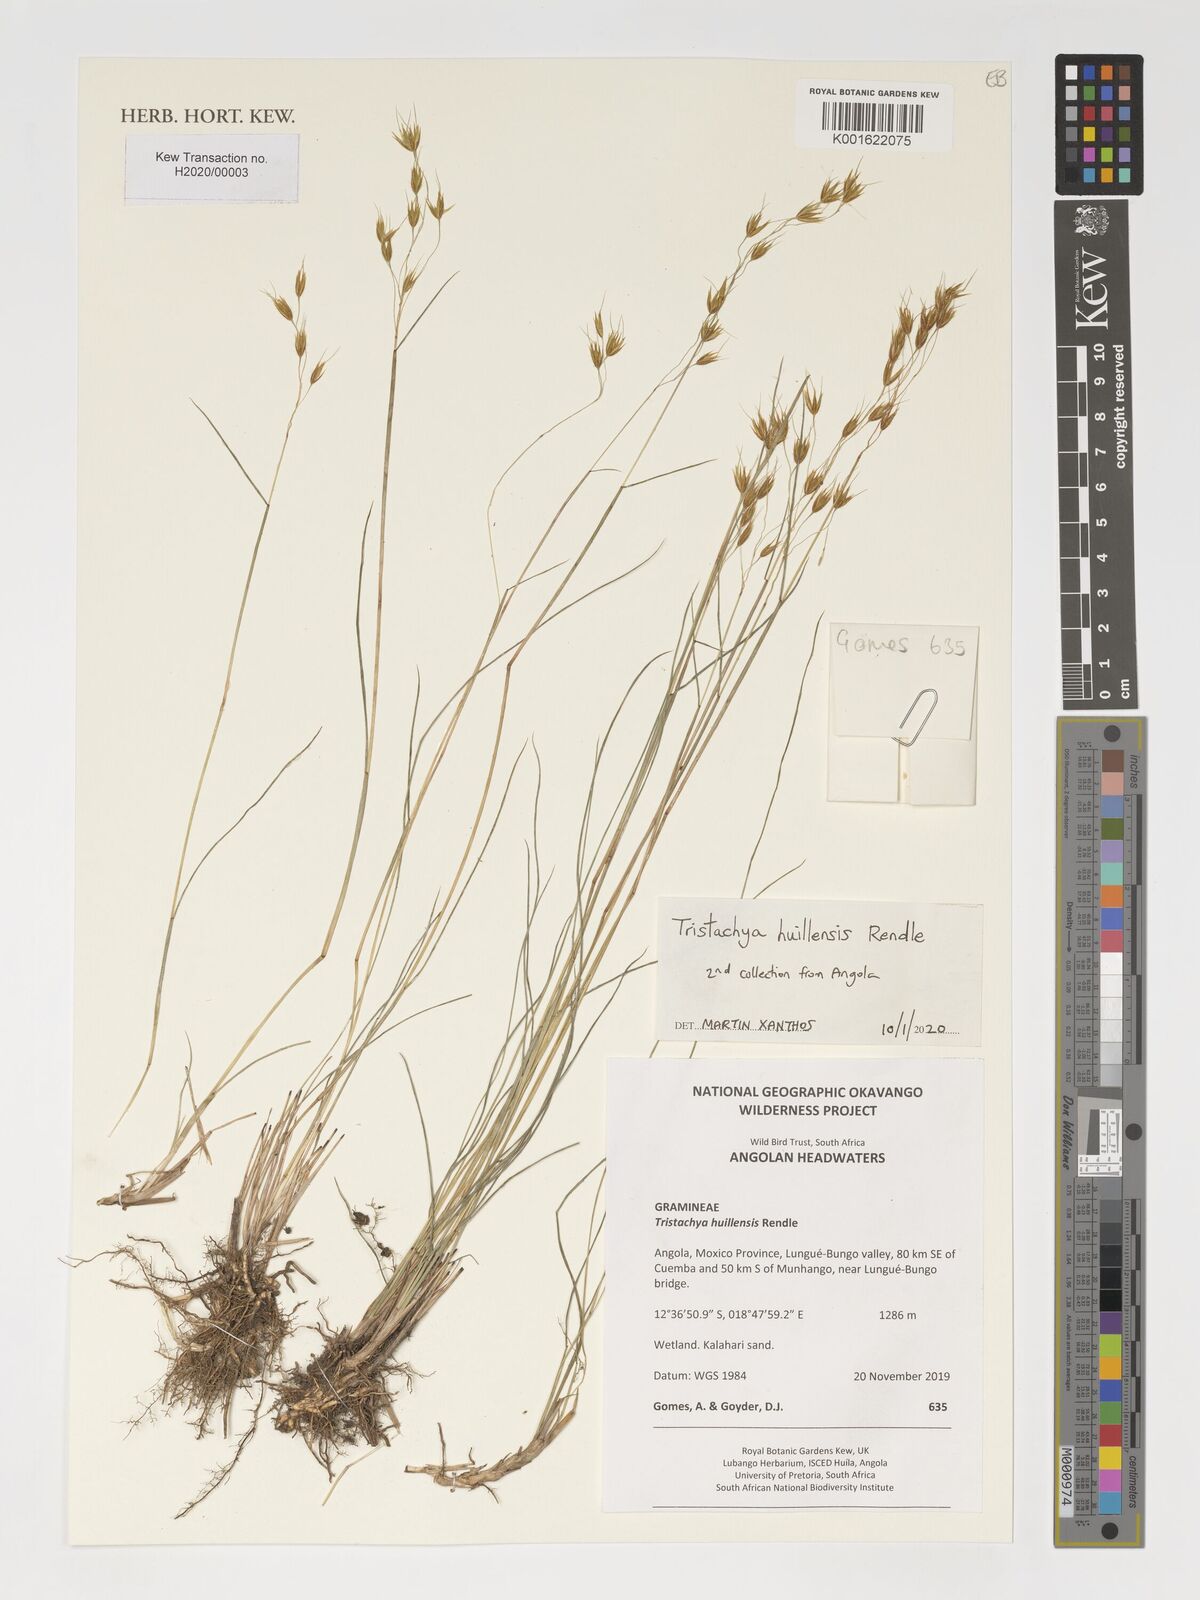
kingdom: Plantae
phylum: Tracheophyta
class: Liliopsida
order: Poales
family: Poaceae
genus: Tristachya
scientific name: Tristachya huillensis
